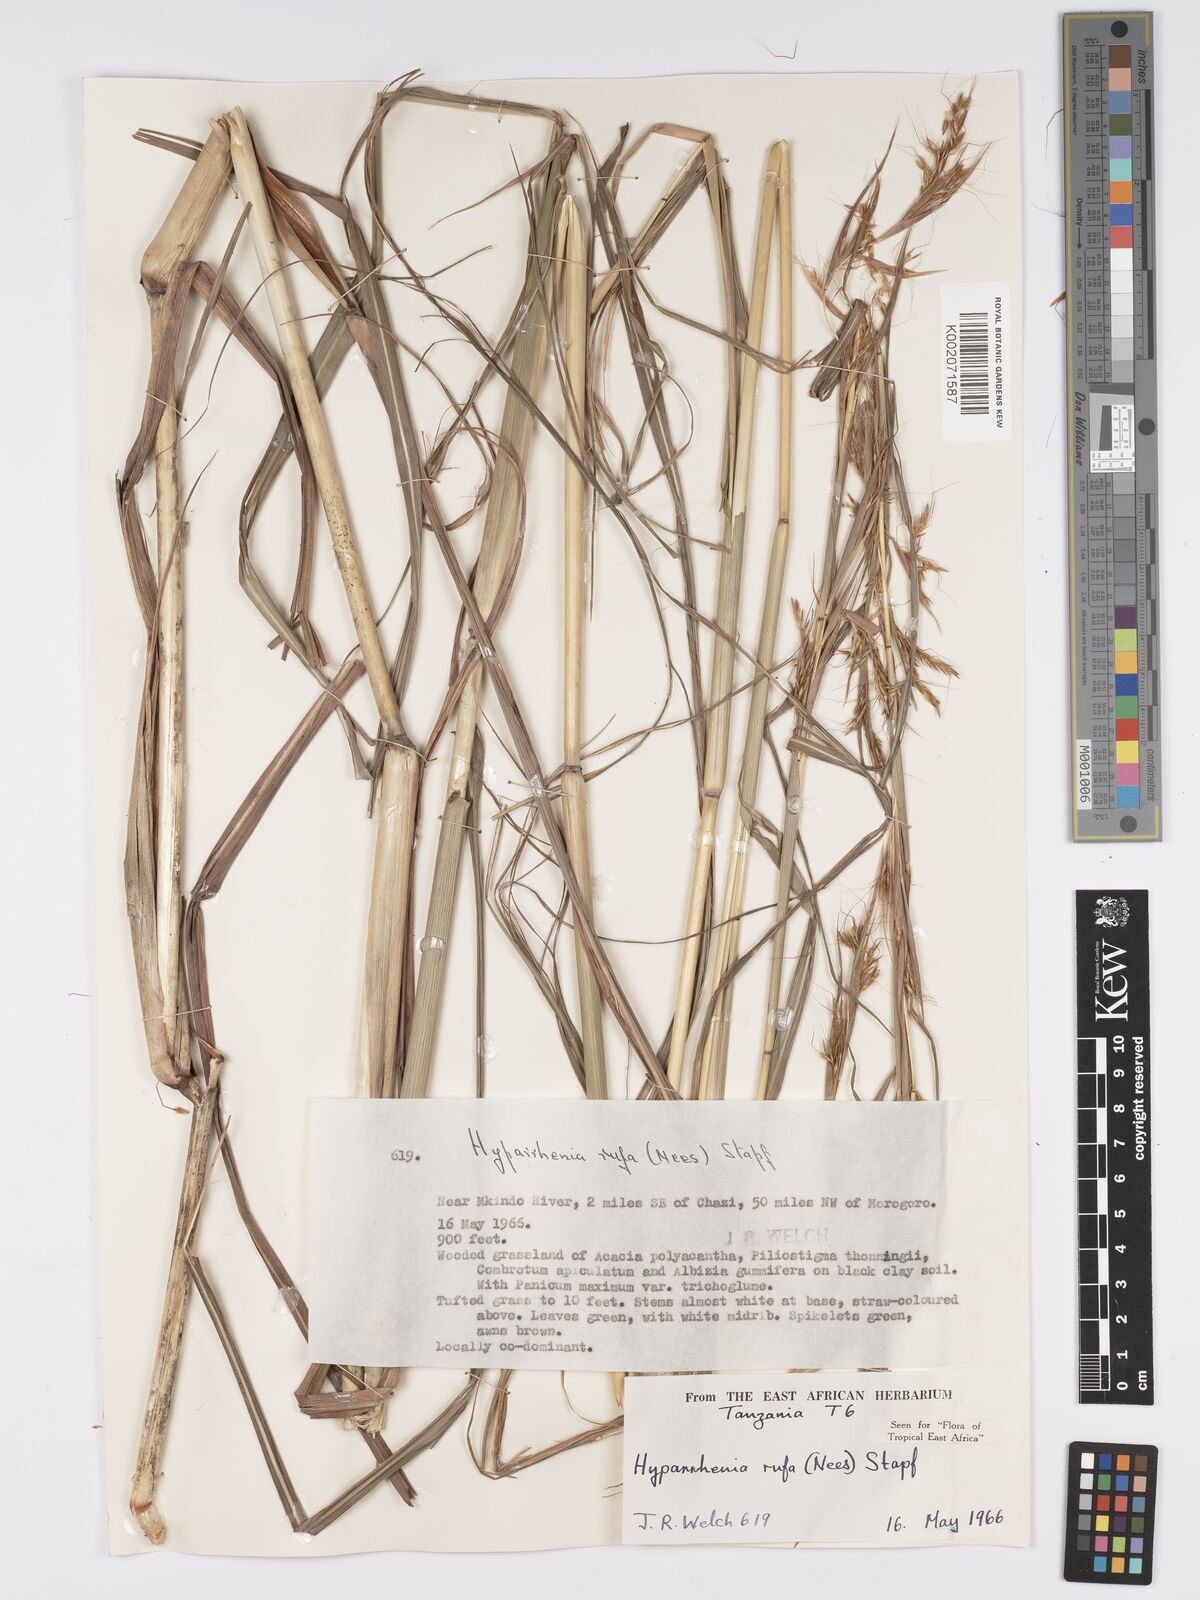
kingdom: Plantae
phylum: Tracheophyta
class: Liliopsida
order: Poales
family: Poaceae
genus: Hyparrhenia
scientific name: Hyparrhenia rufa
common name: Jaraguagrass
